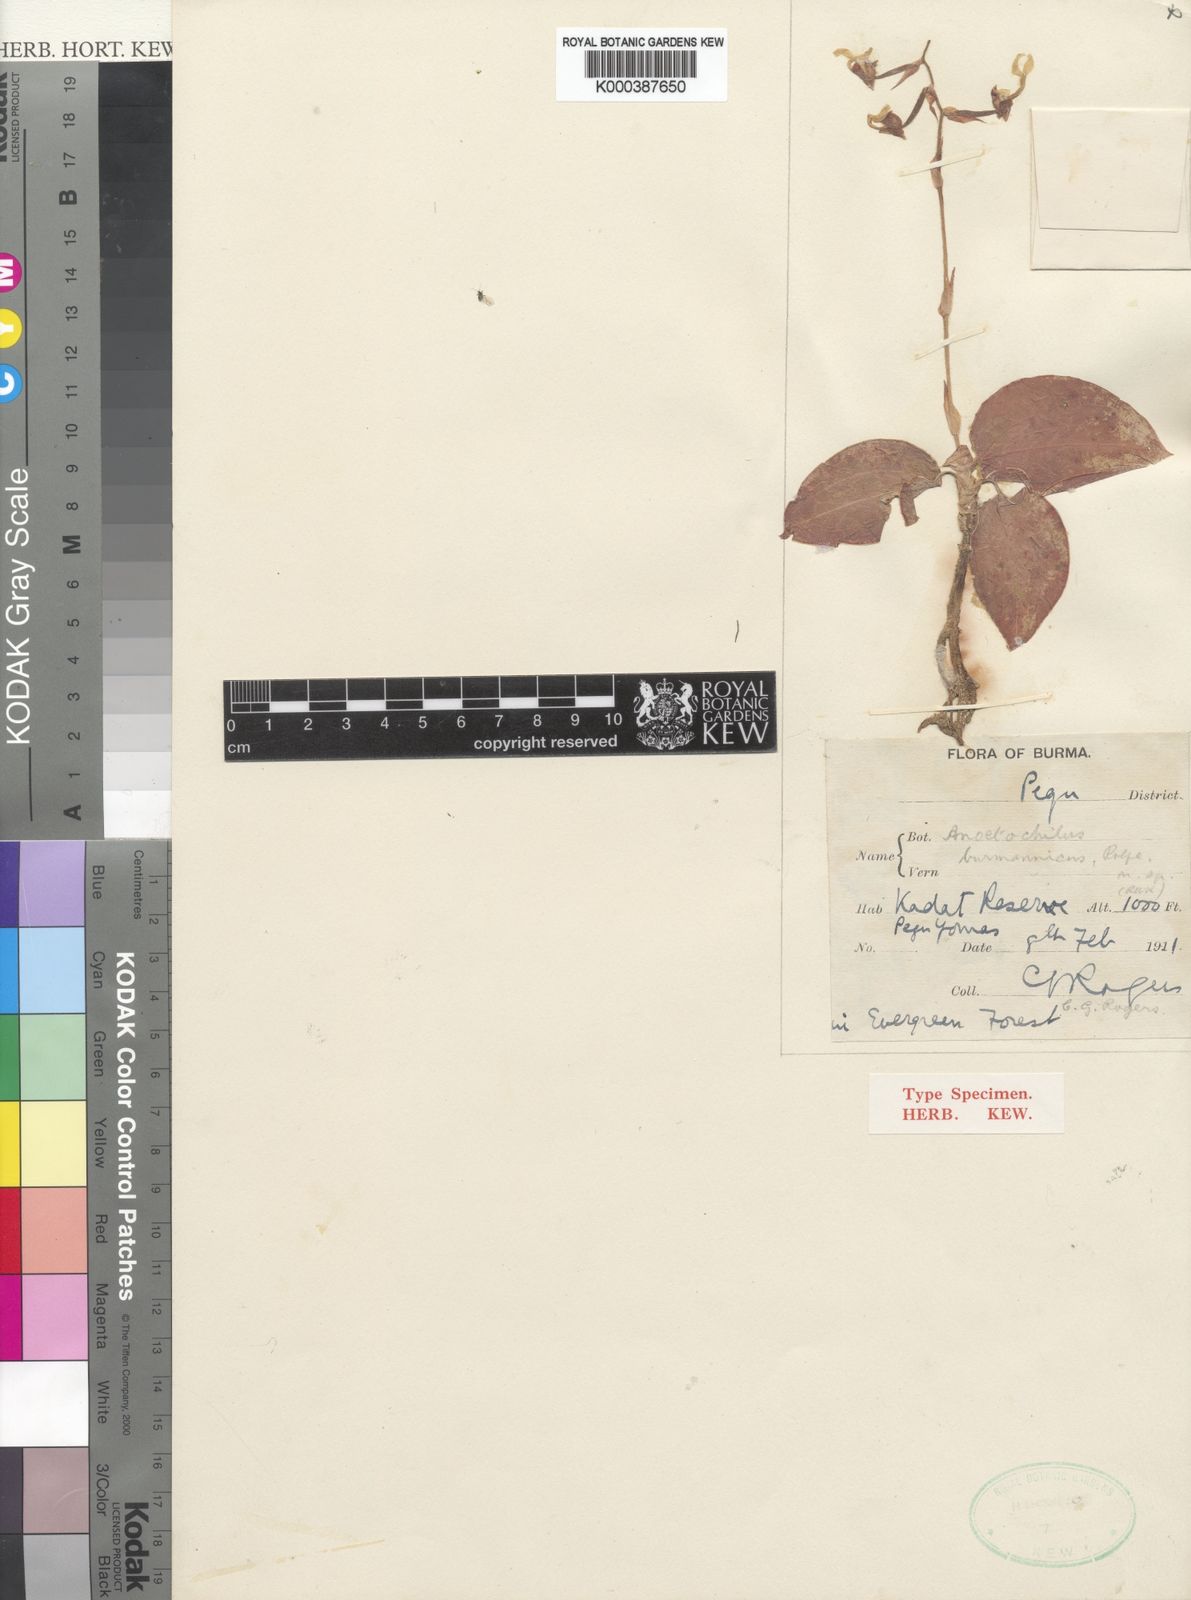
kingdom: Plantae
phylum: Tracheophyta
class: Liliopsida
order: Asparagales
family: Orchidaceae
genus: Anoectochilus
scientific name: Anoectochilus burmannicus
